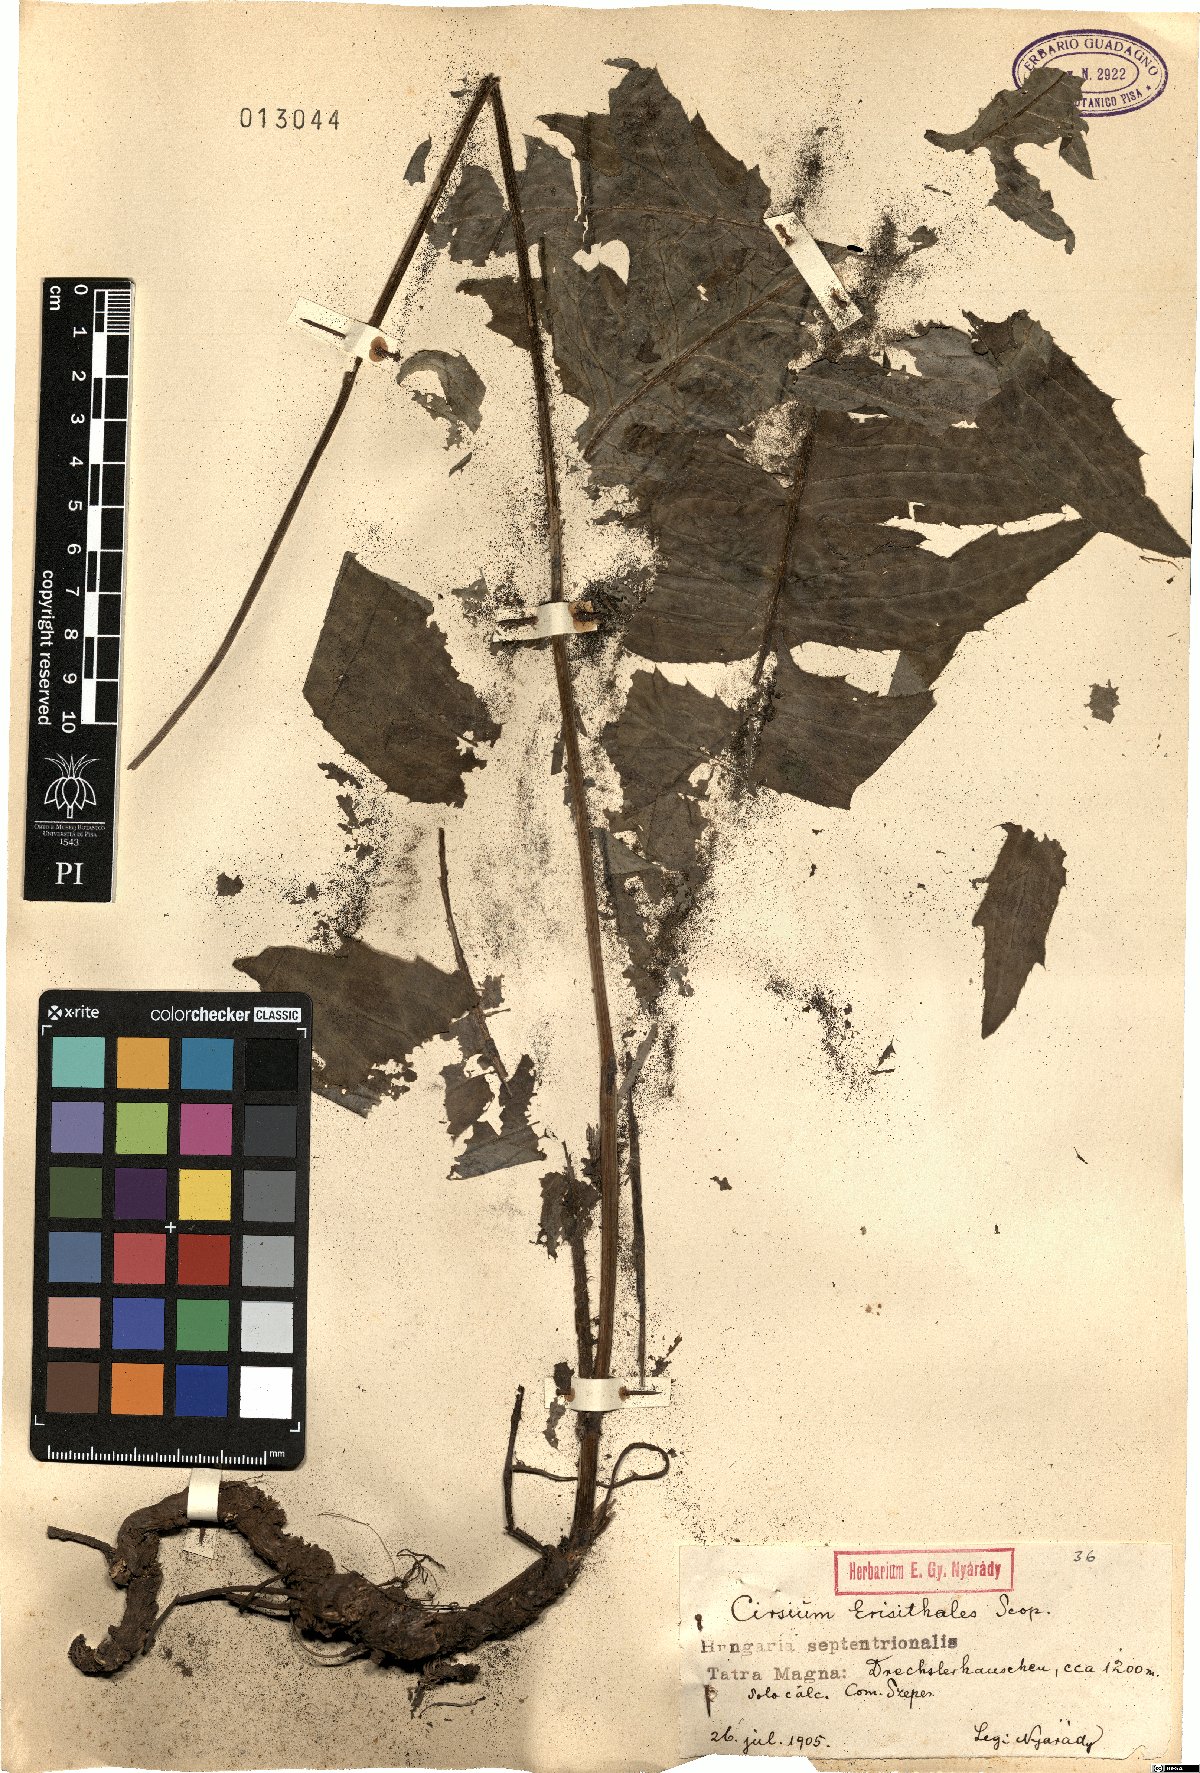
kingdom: Plantae
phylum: Tracheophyta
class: Magnoliopsida
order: Asterales
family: Asteraceae
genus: Cirsium
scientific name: Cirsium erisithales
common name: Yellow thistle
